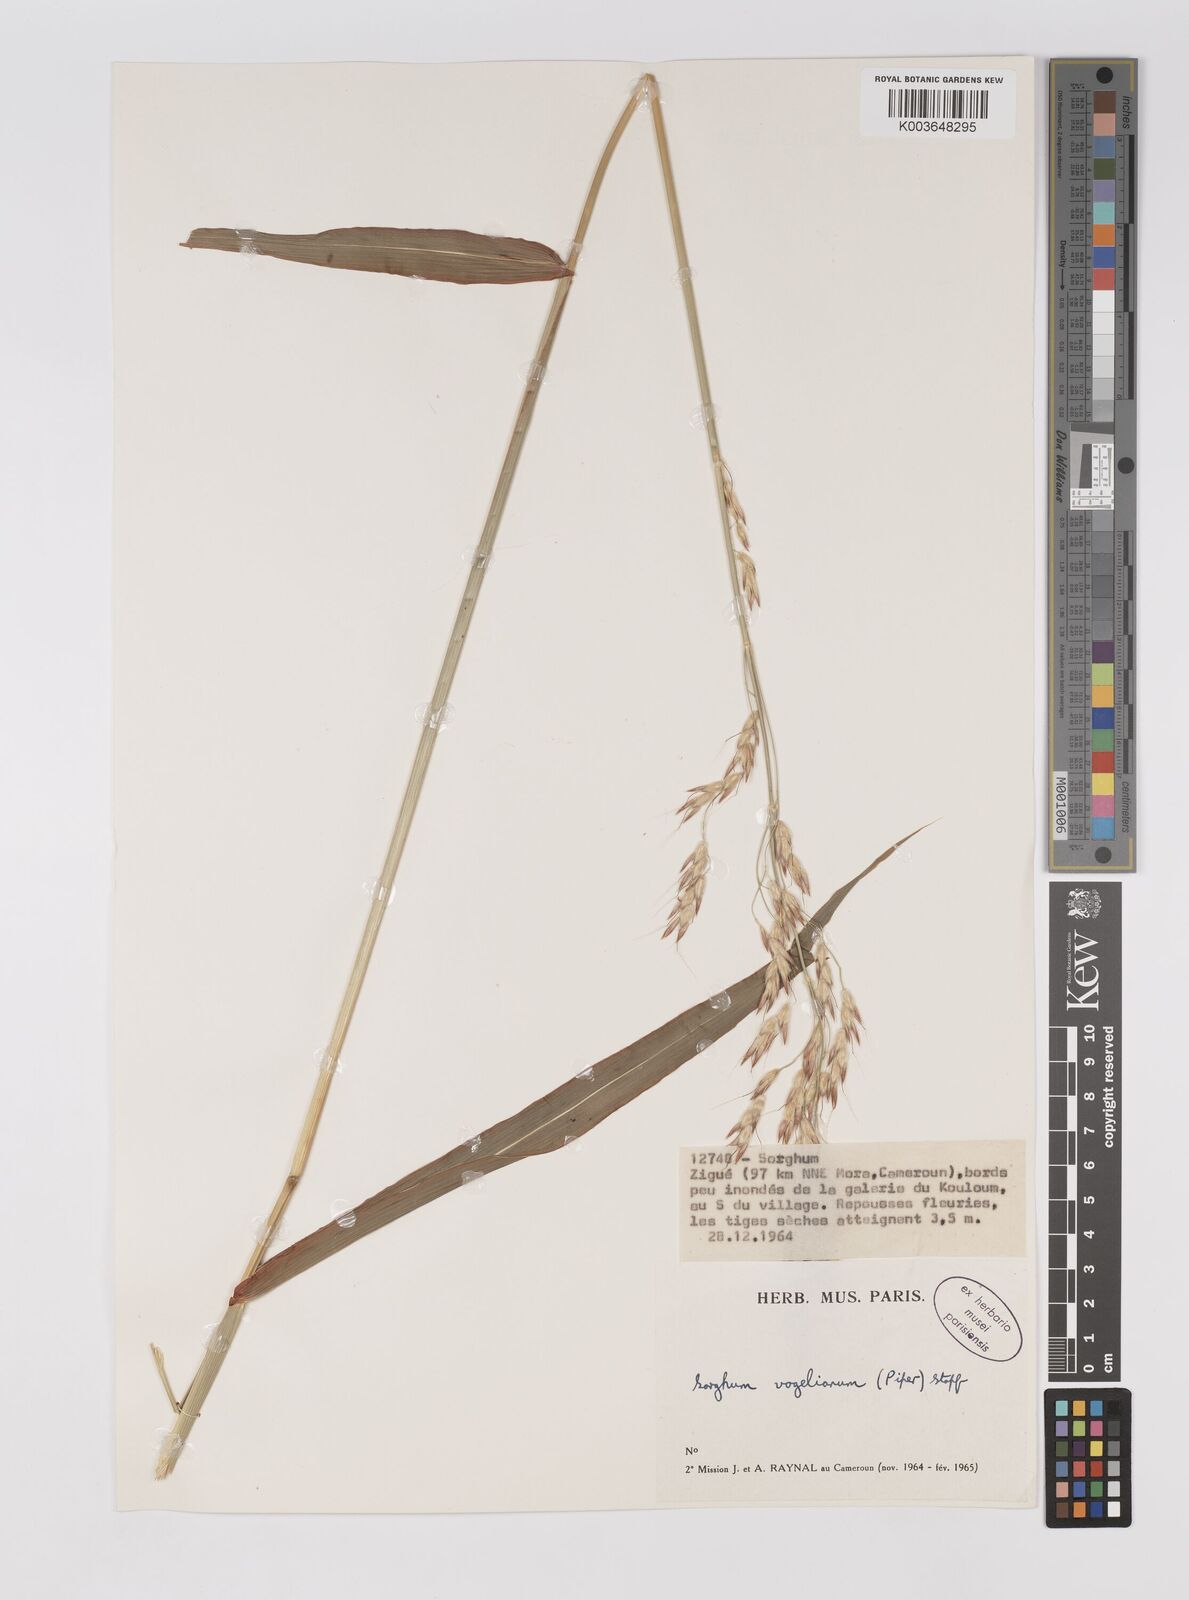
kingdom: Plantae
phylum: Tracheophyta
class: Liliopsida
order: Poales
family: Poaceae
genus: Sorghum
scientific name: Sorghum arundinaceum
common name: Sorghum
